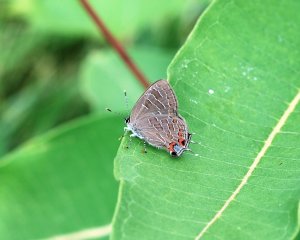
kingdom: Animalia
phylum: Arthropoda
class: Insecta
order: Lepidoptera
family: Lycaenidae
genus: Satyrium
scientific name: Satyrium liparops
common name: Striped Hairstreak
